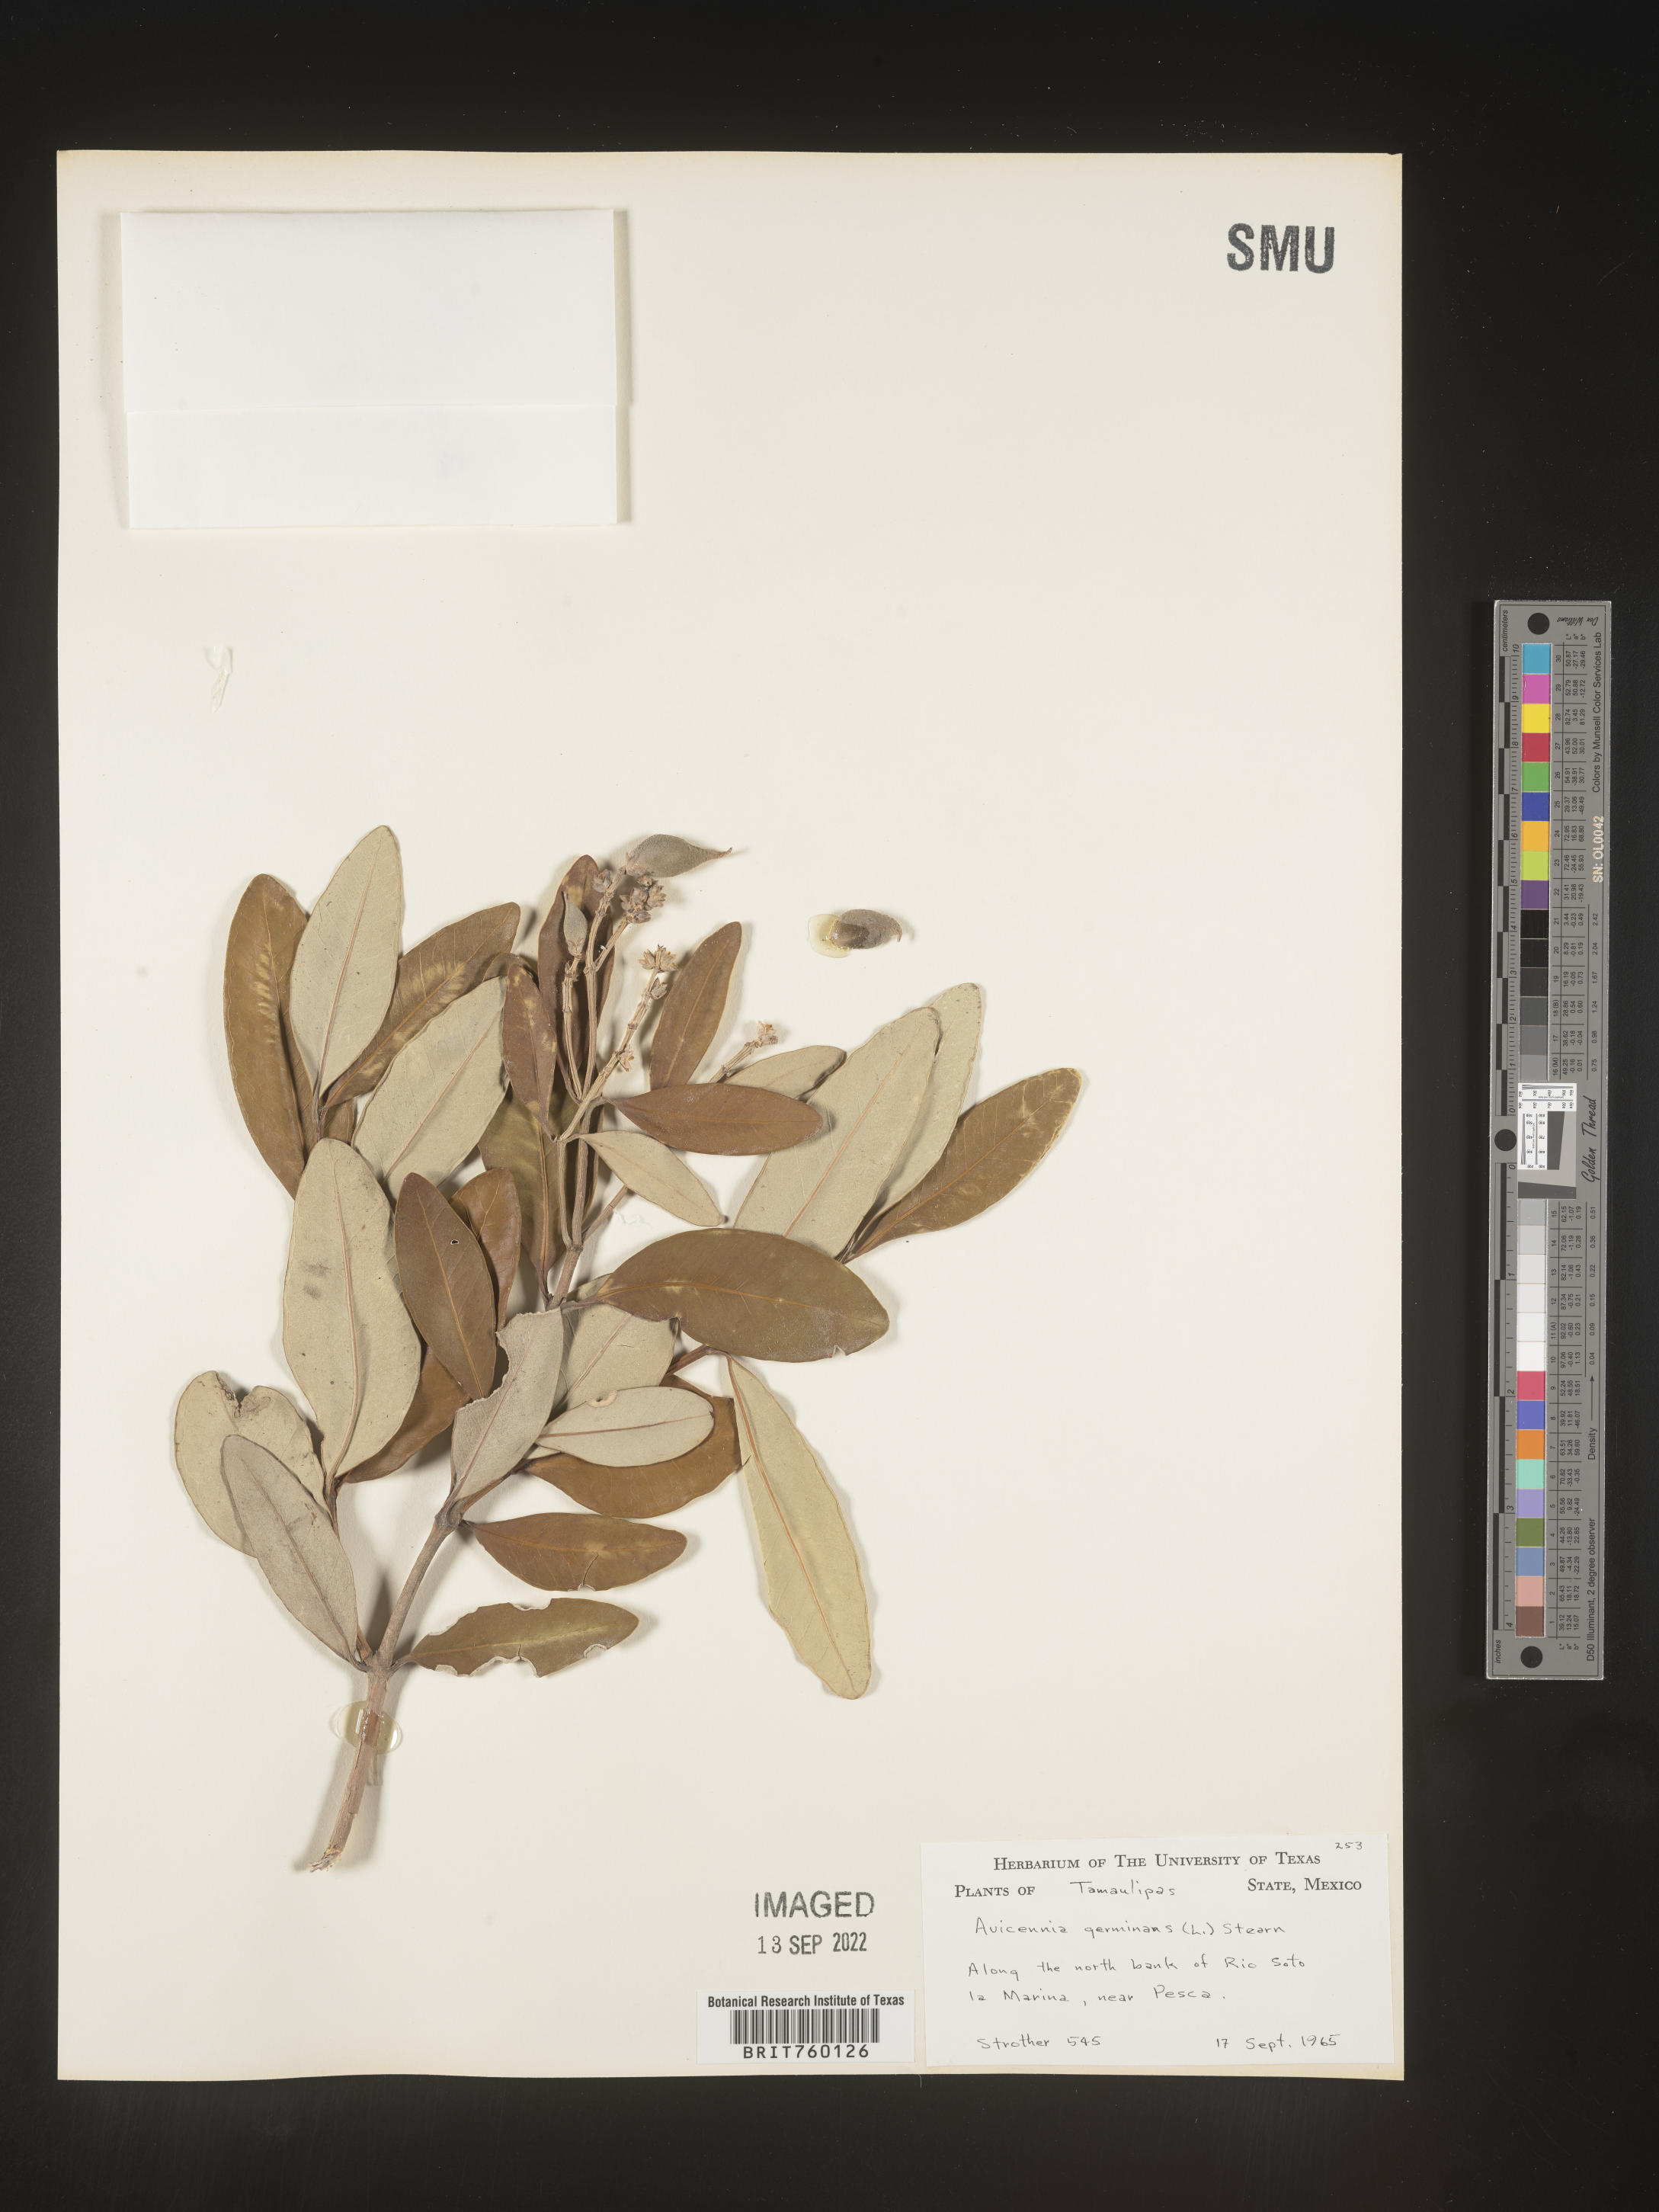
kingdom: Plantae
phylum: Tracheophyta
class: Magnoliopsida
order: Lamiales
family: Acanthaceae
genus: Avicennia
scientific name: Avicennia
